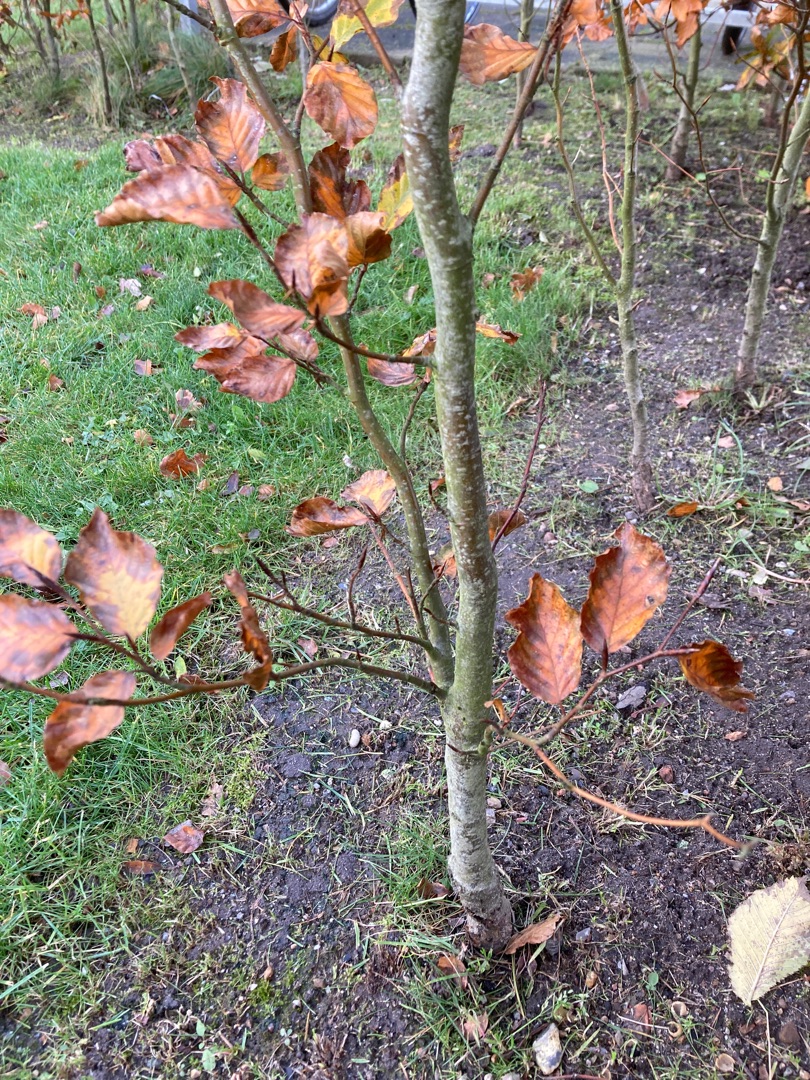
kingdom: Plantae
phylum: Tracheophyta
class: Magnoliopsida
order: Fagales
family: Fagaceae
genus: Fagus
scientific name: Fagus sylvatica
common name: Bøg
